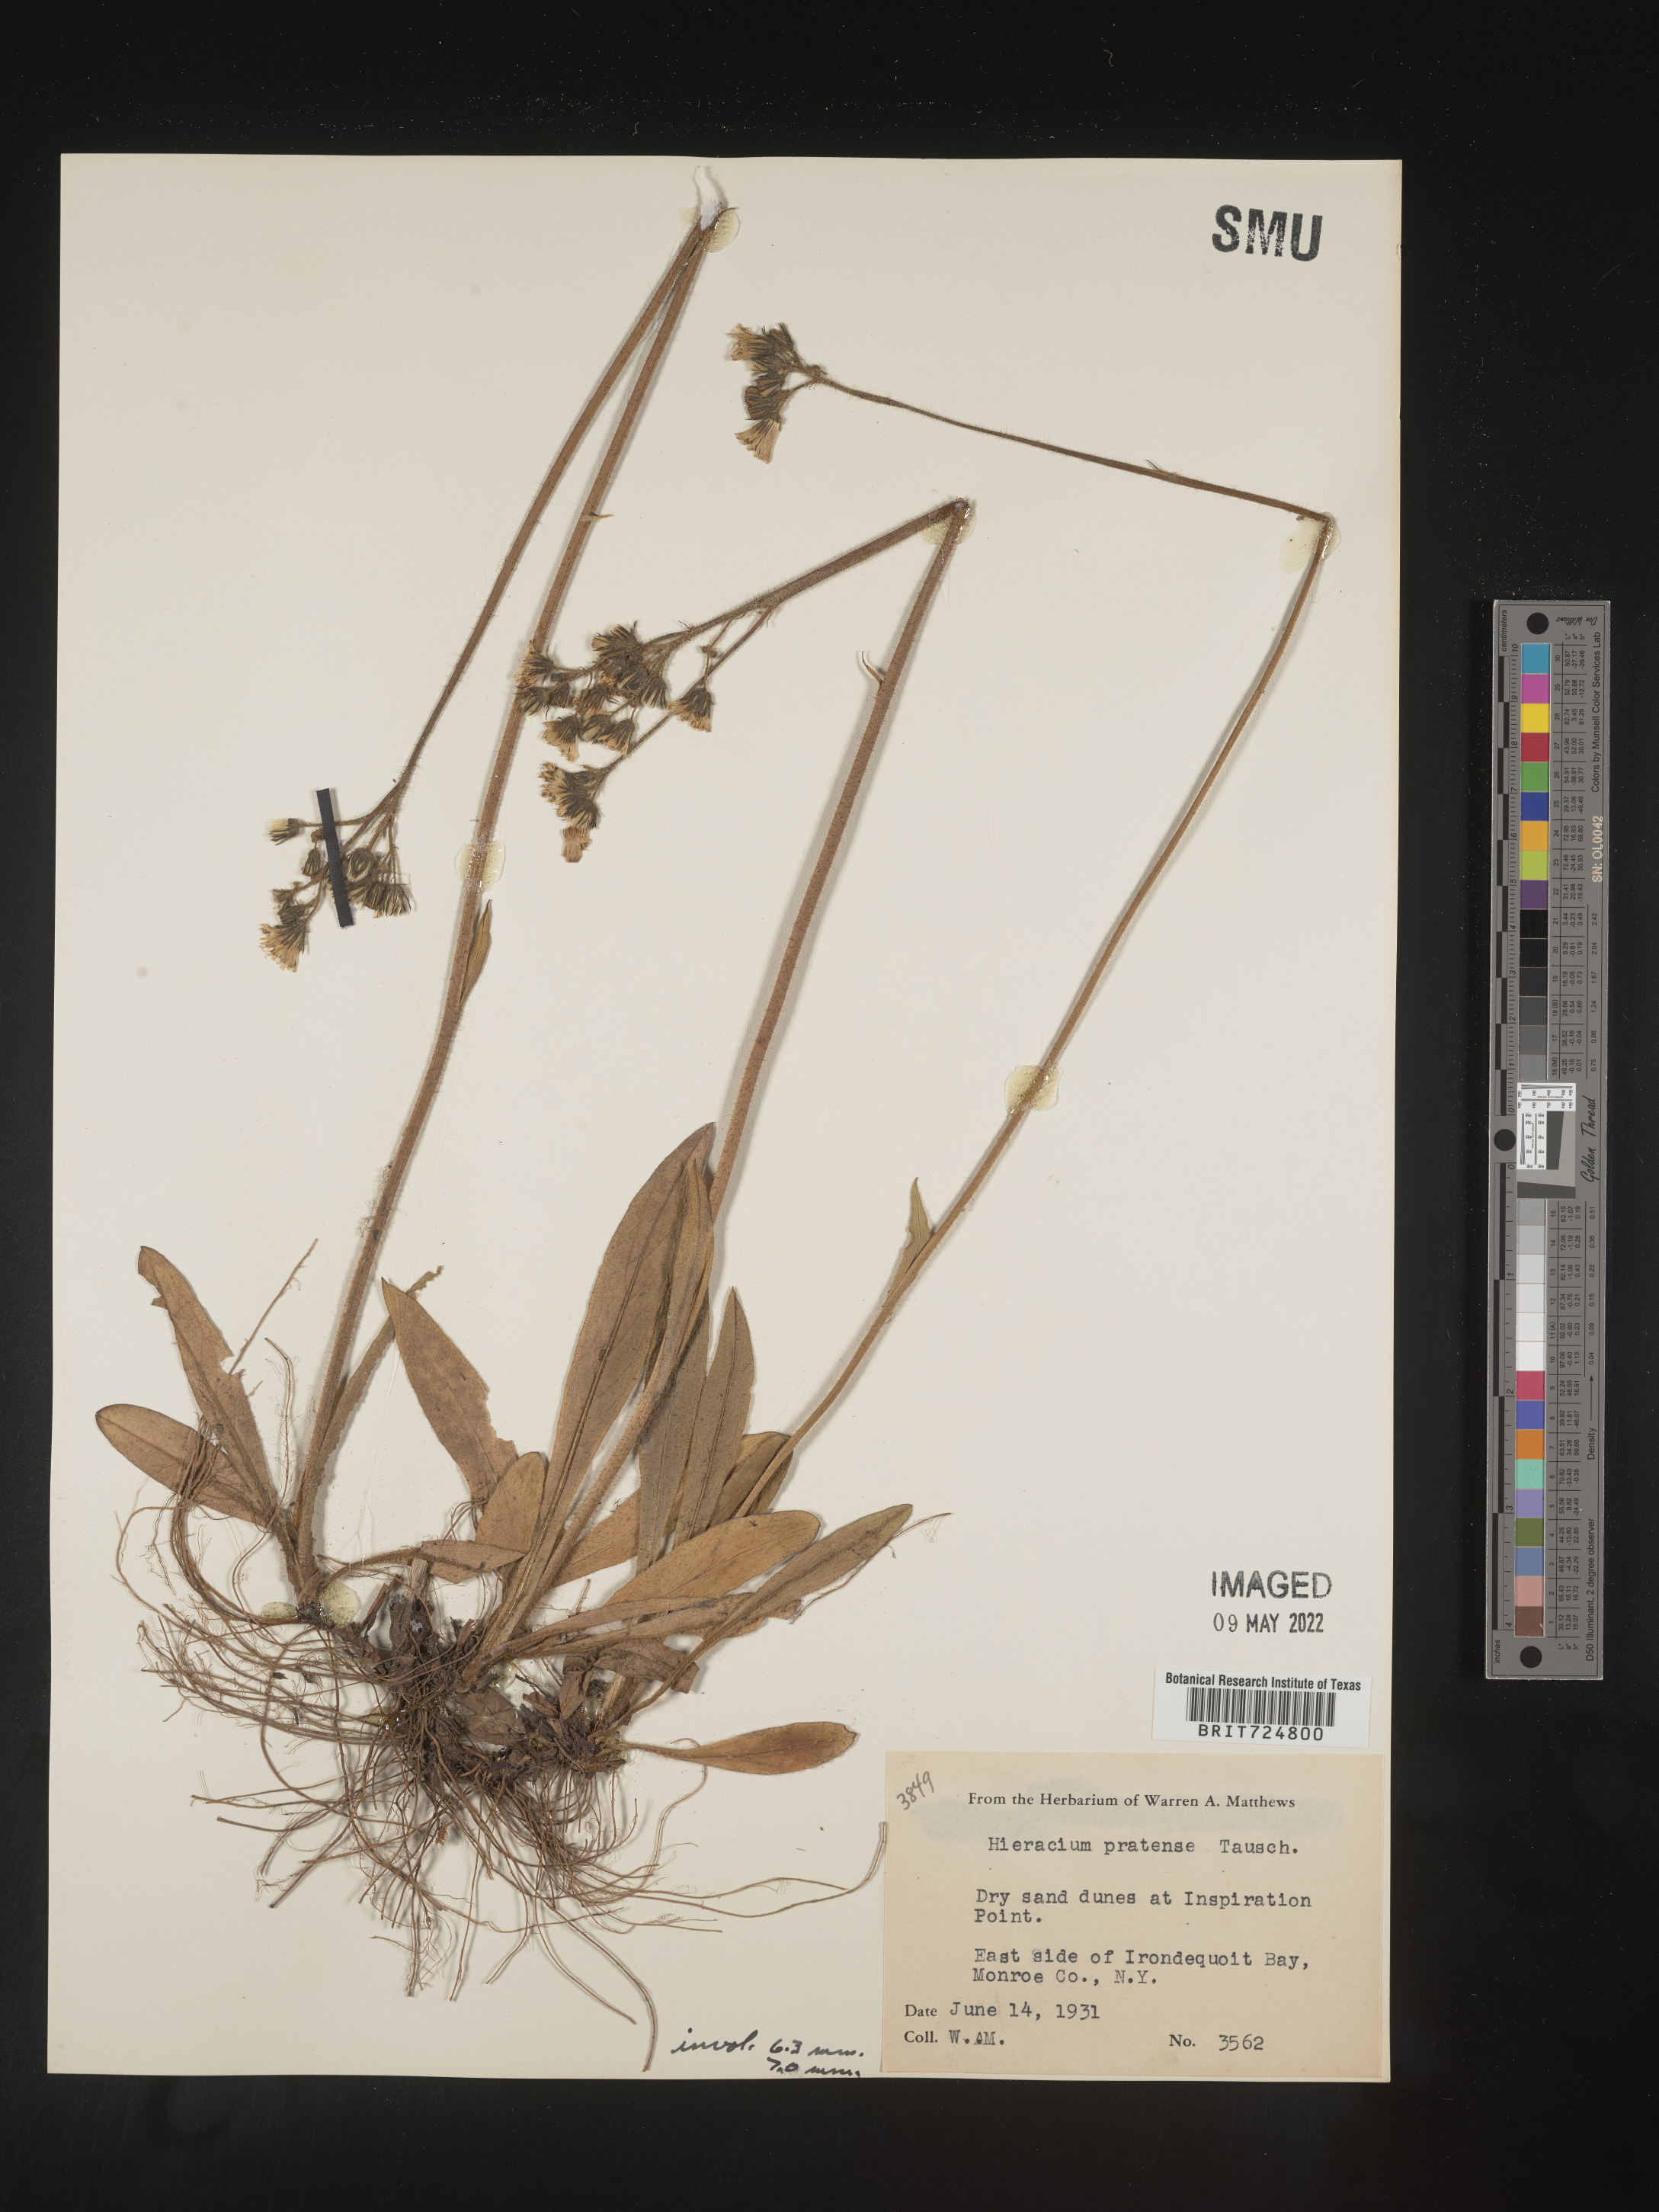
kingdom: Plantae
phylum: Tracheophyta
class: Magnoliopsida
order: Asterales
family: Asteraceae
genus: Hieracium
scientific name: Hieracium
